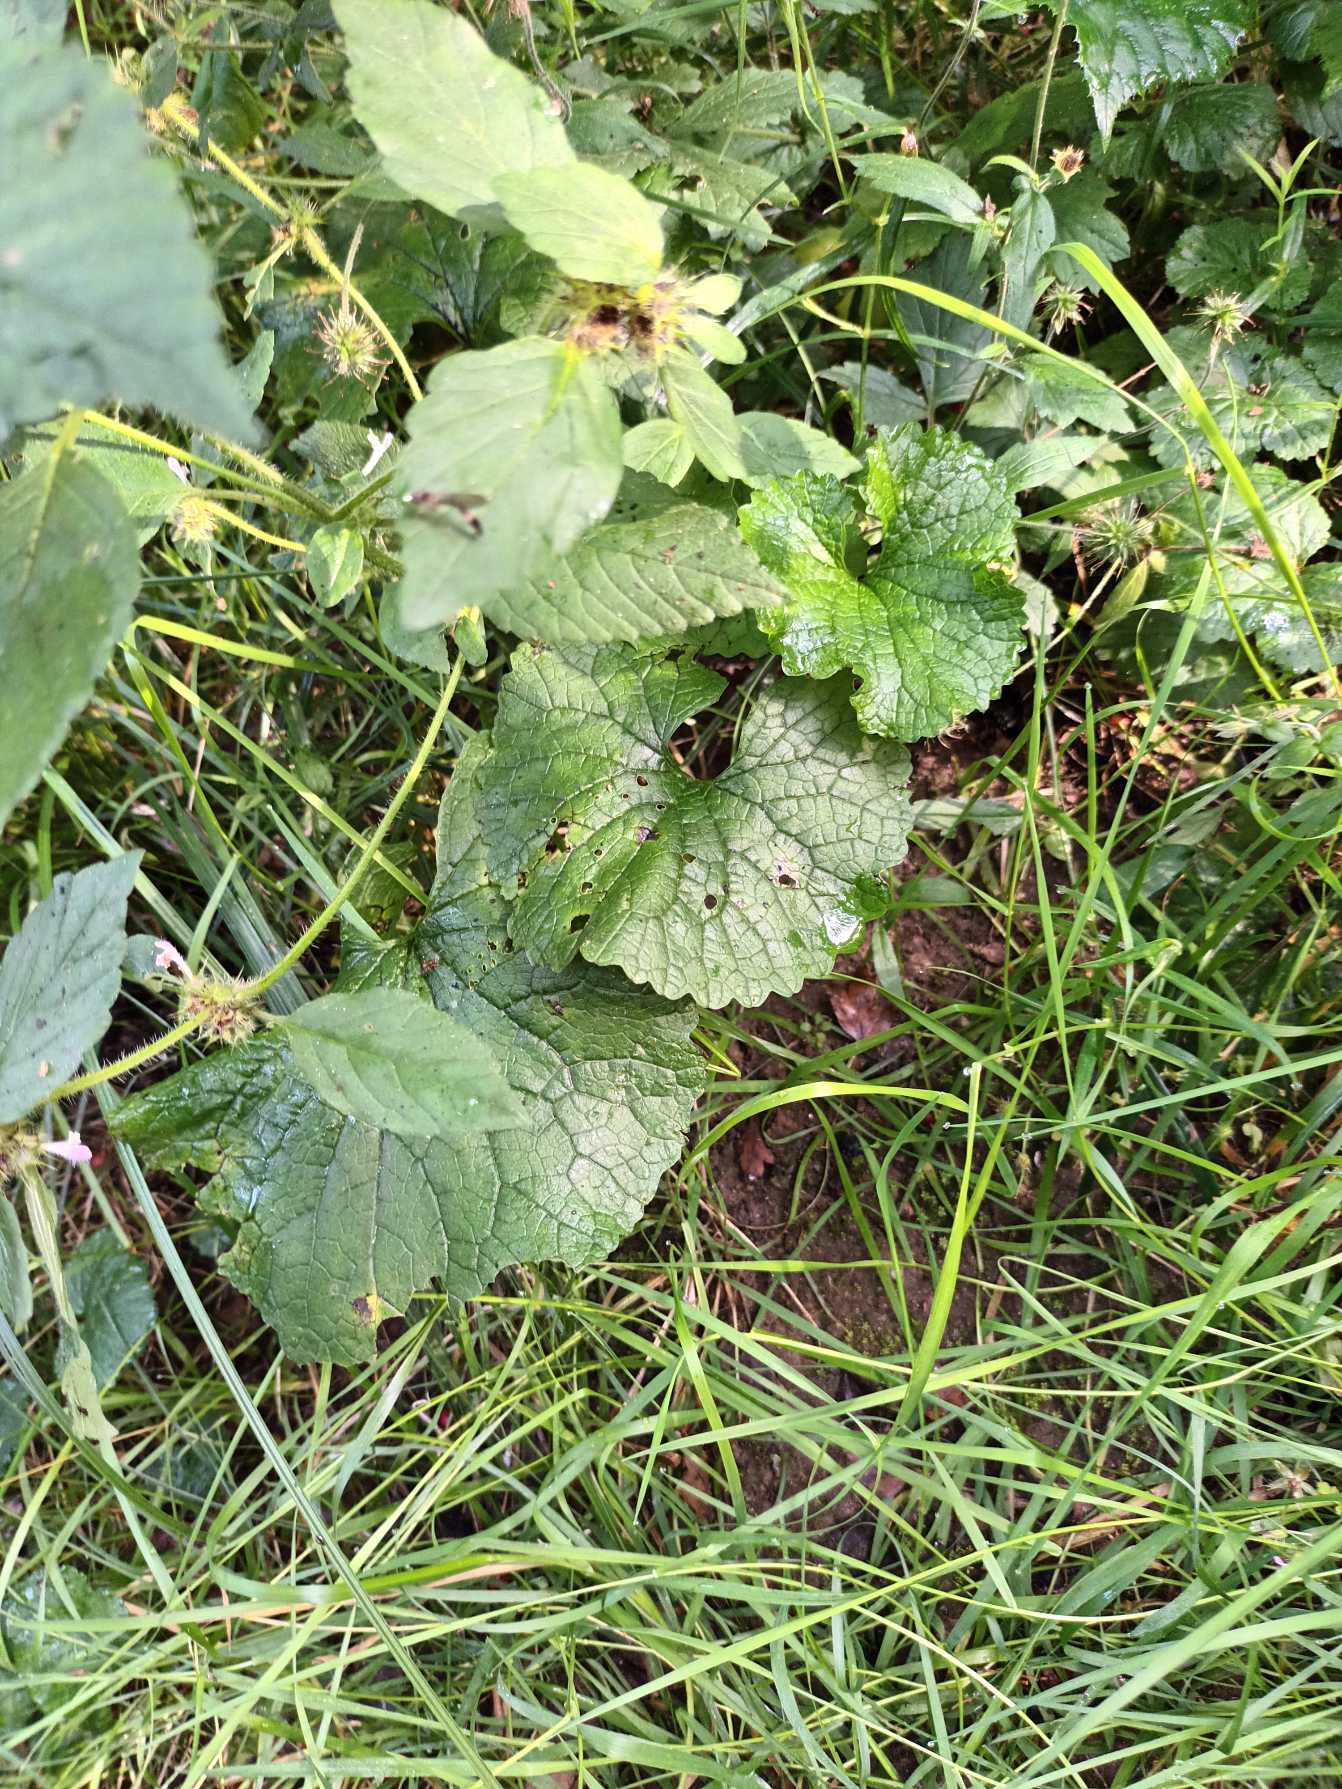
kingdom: Plantae
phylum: Tracheophyta
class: Magnoliopsida
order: Brassicales
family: Brassicaceae
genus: Alliaria
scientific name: Alliaria petiolata
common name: Løgkarse
